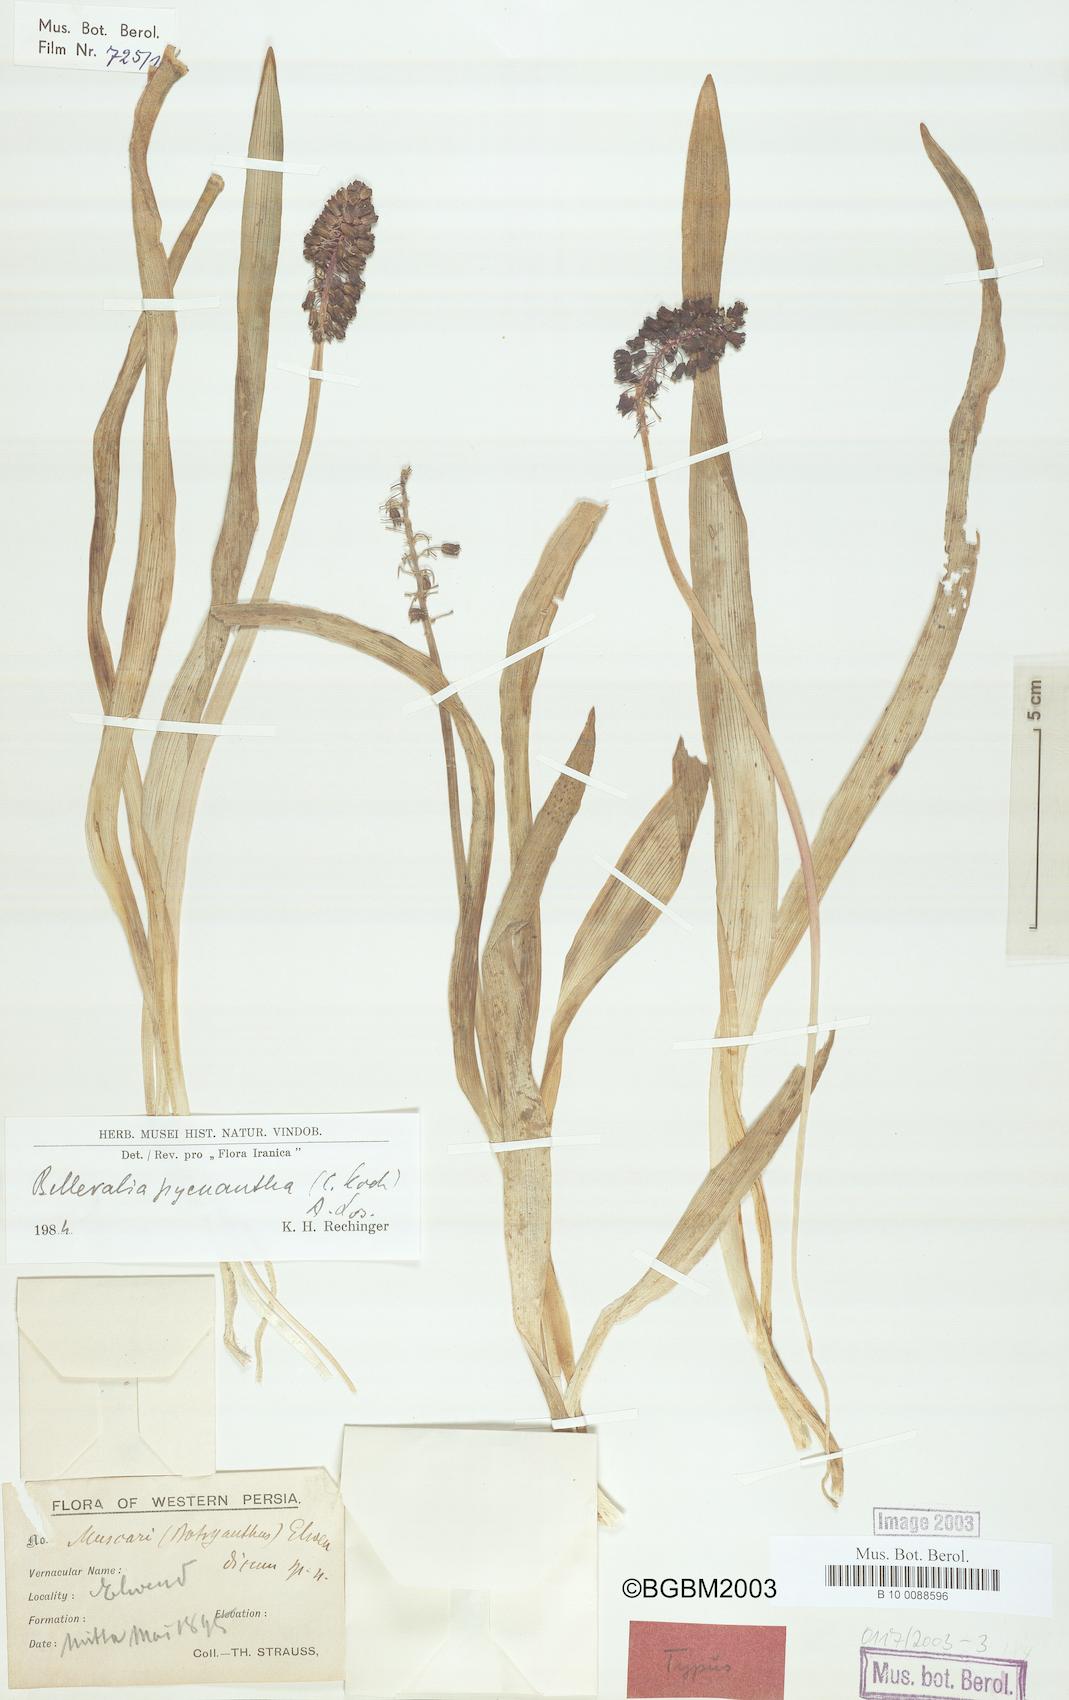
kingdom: Plantae
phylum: Tracheophyta
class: Liliopsida
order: Asparagales
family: Asparagaceae
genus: Bellevalia
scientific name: Bellevalia paradoxa
